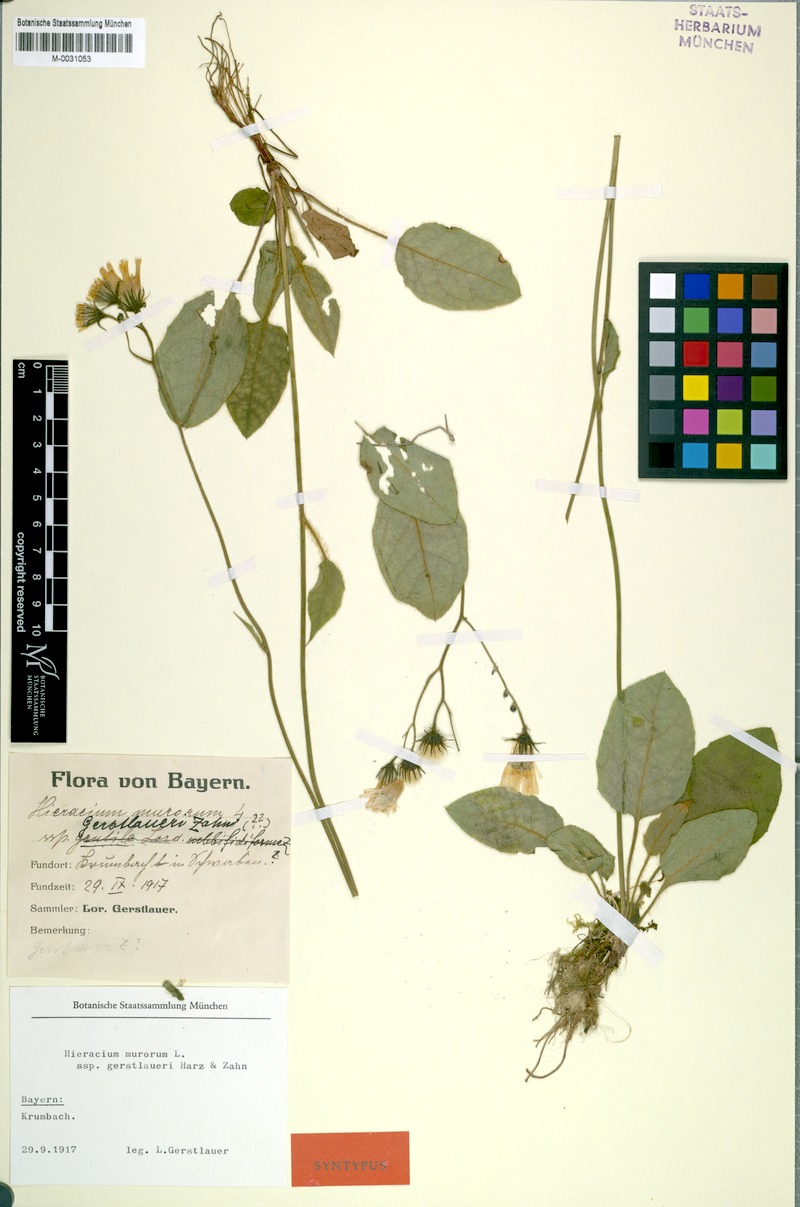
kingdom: Plantae
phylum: Tracheophyta
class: Magnoliopsida
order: Asterales
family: Asteraceae
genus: Hieracium
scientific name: Hieracium murorum
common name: Wall hawkweed
